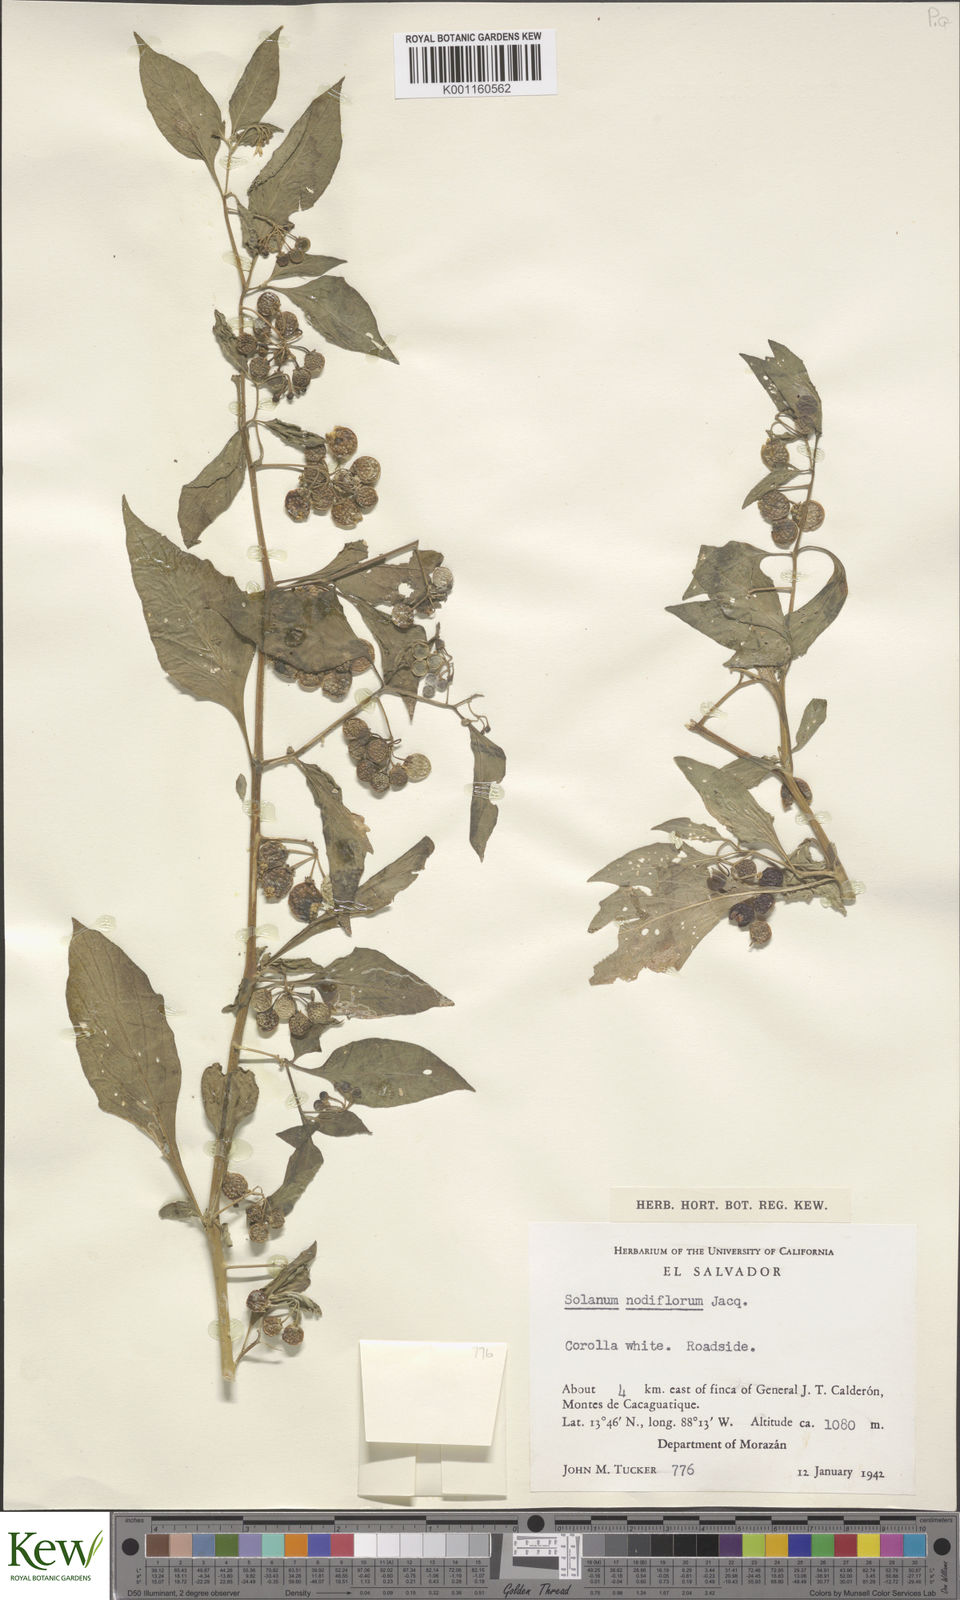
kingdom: Plantae
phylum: Tracheophyta
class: Magnoliopsida
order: Solanales
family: Solanaceae
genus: Solanum
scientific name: Solanum americanum
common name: American black nightshade
